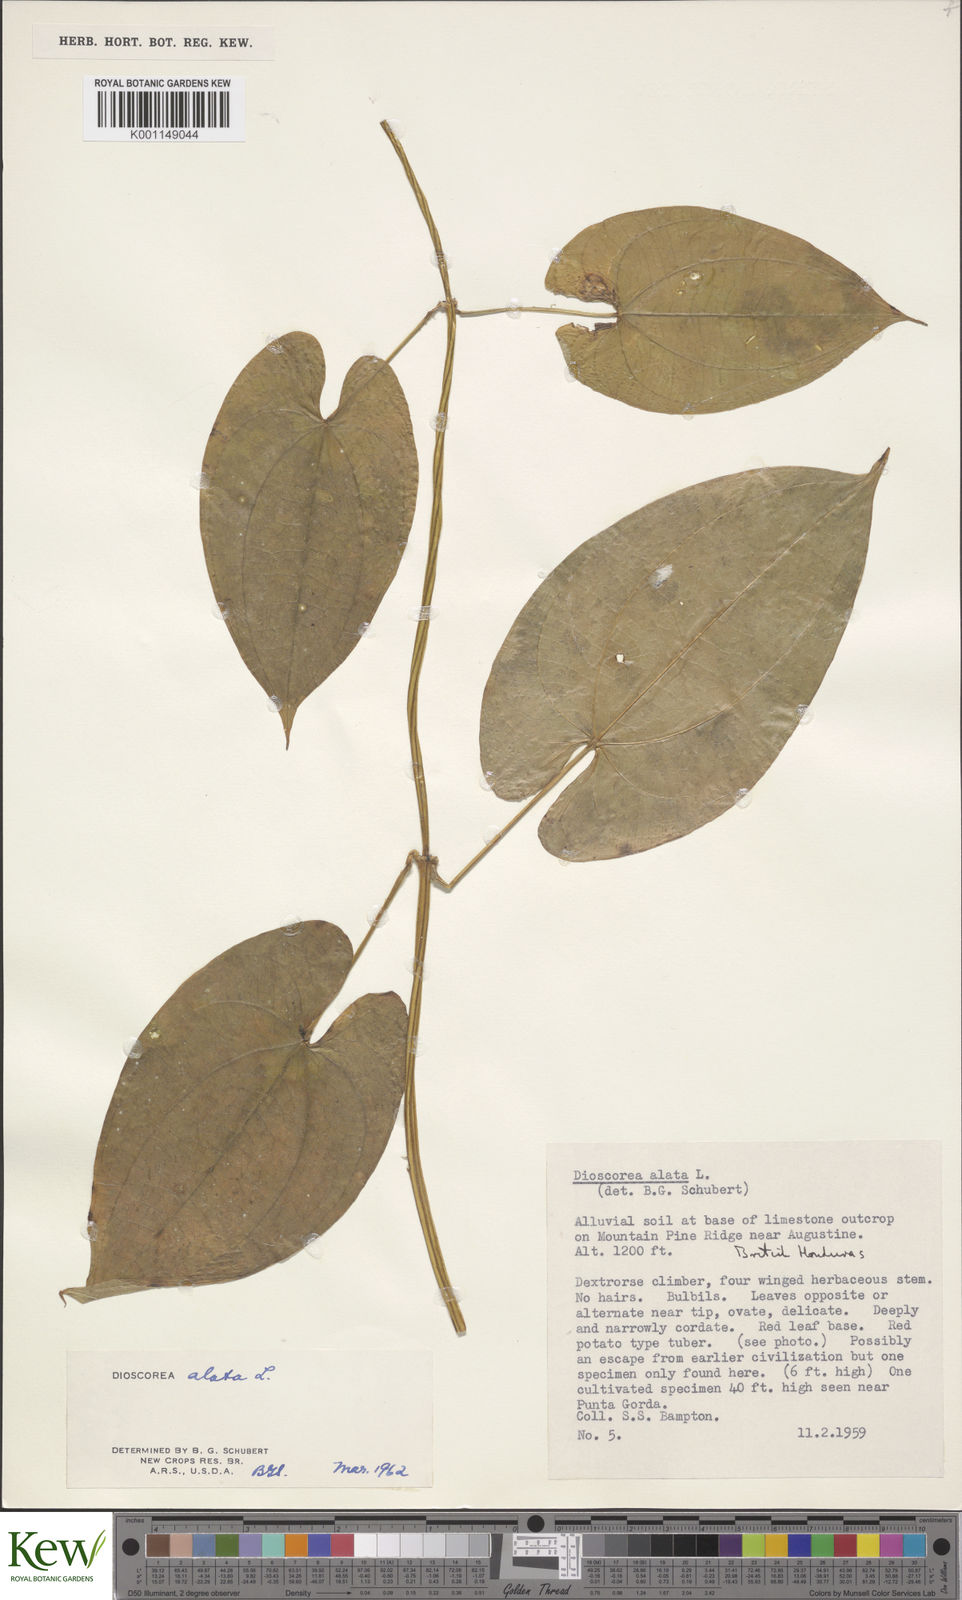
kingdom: Plantae
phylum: Tracheophyta
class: Liliopsida
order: Dioscoreales
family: Dioscoreaceae
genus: Dioscorea
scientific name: Dioscorea alata
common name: Water yam
